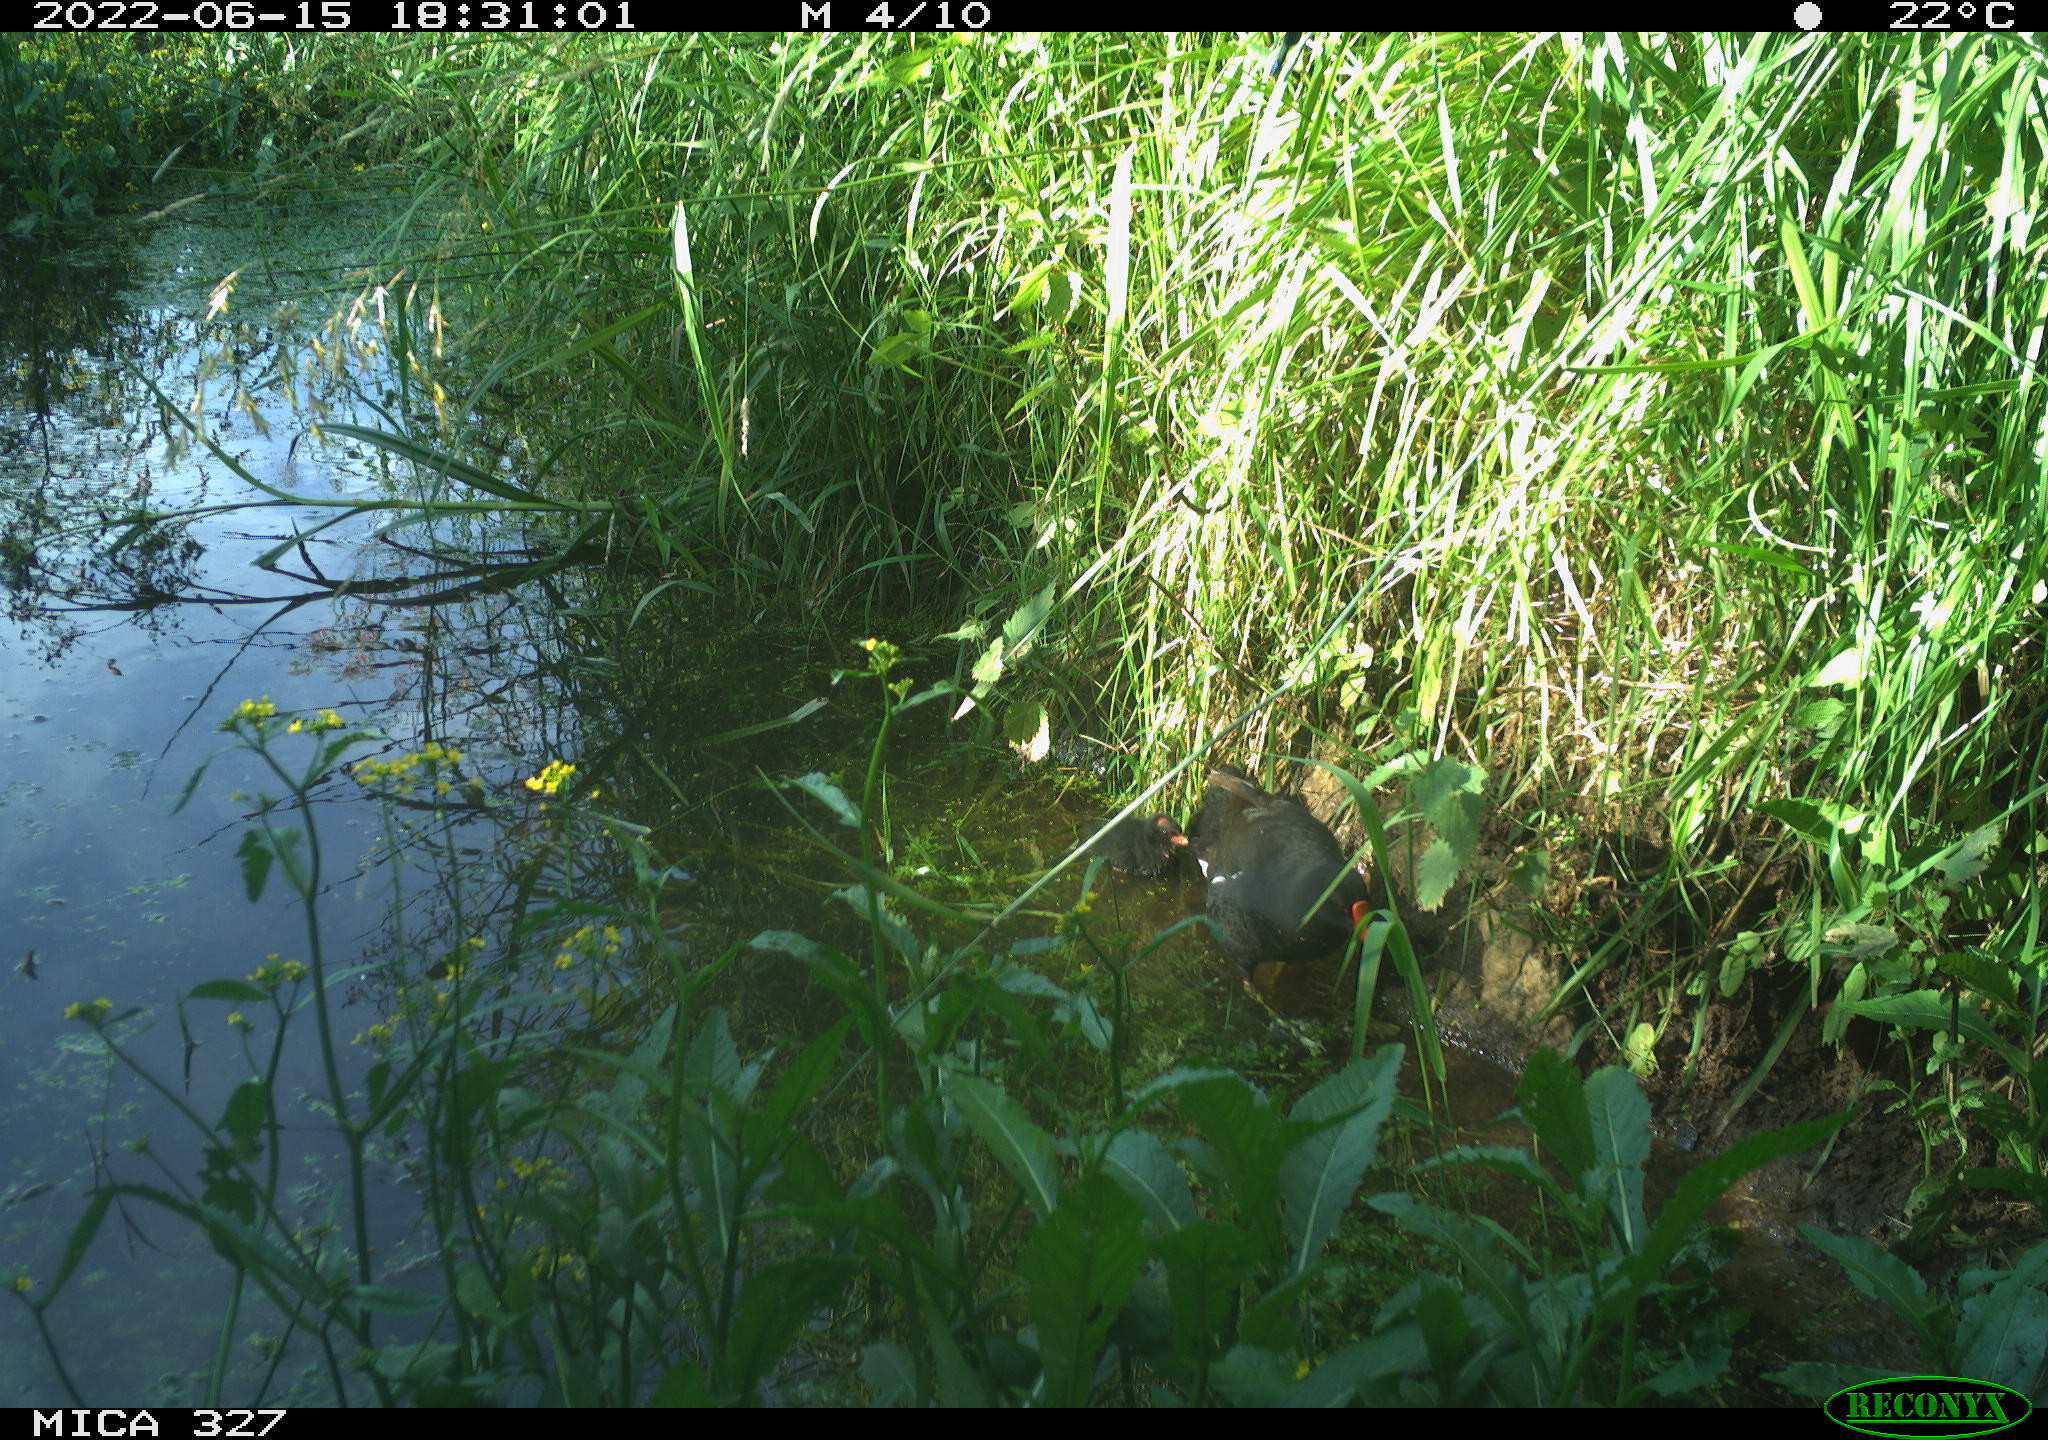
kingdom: Animalia
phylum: Chordata
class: Aves
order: Gruiformes
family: Rallidae
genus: Gallinula
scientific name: Gallinula chloropus
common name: Common moorhen
